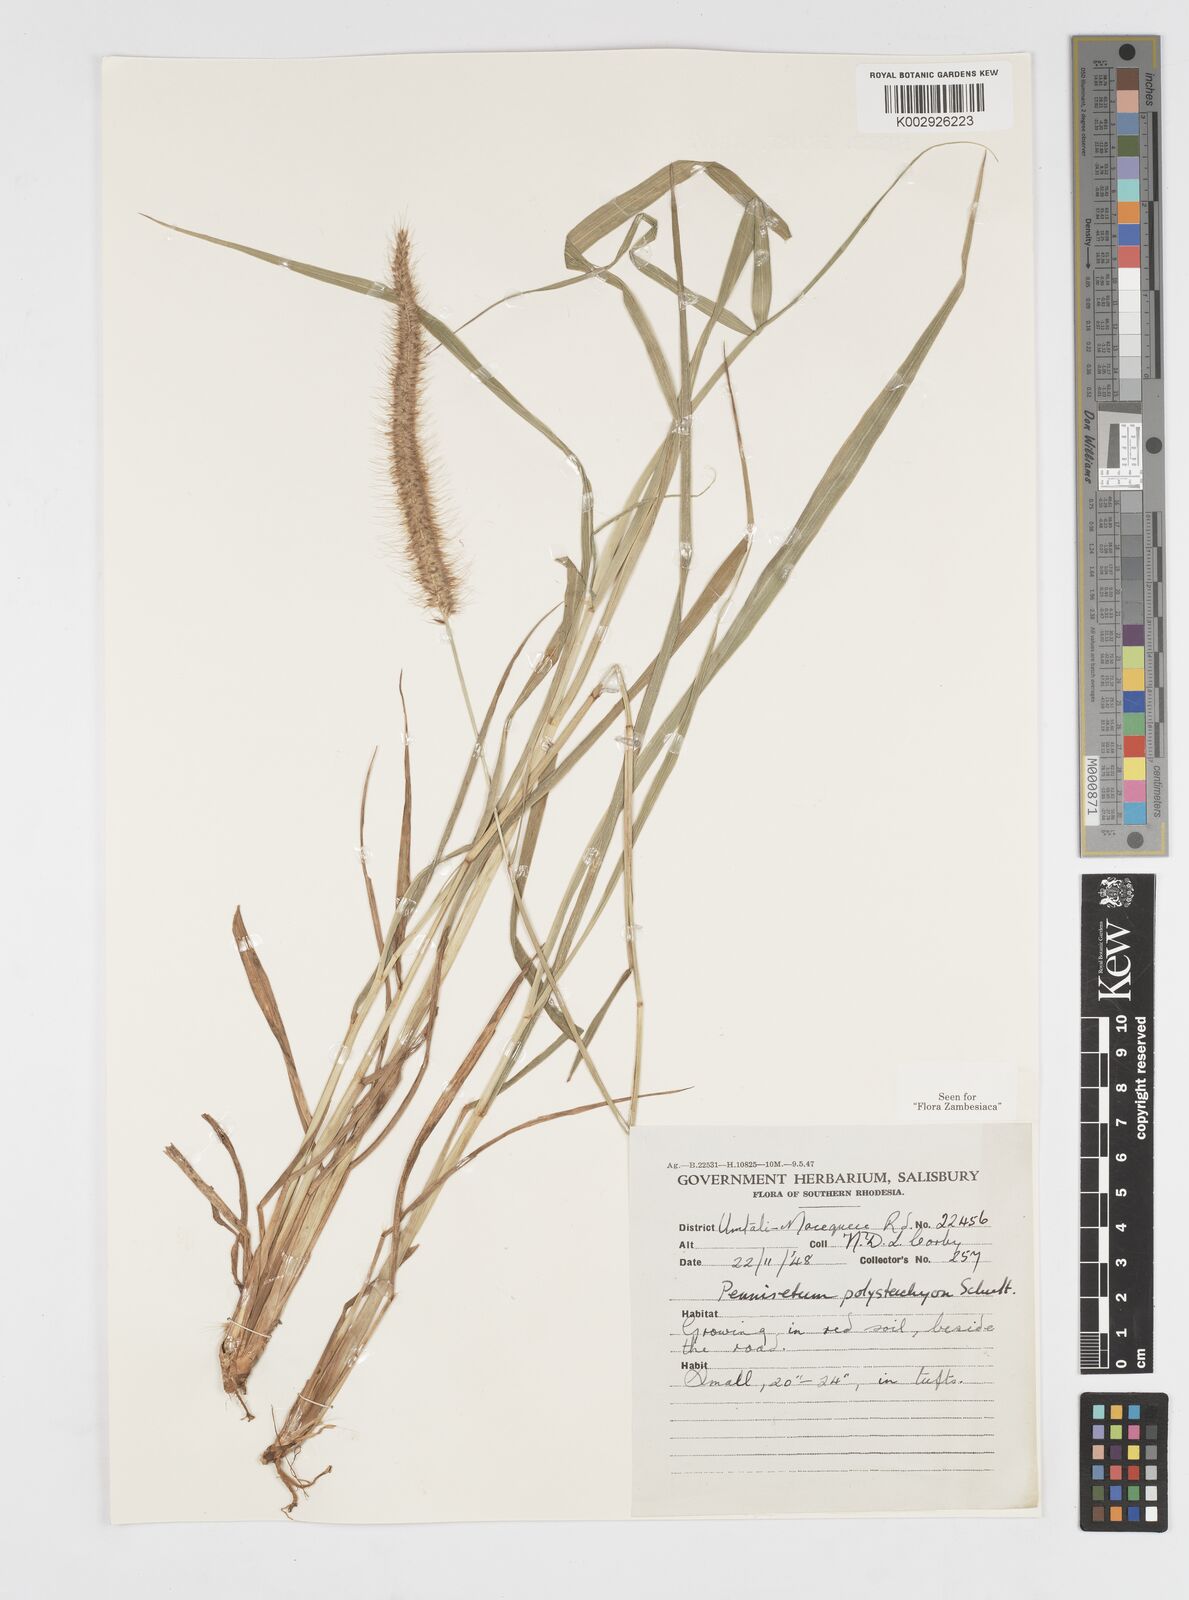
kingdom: Plantae
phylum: Tracheophyta
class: Liliopsida
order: Poales
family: Poaceae
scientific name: Poaceae
